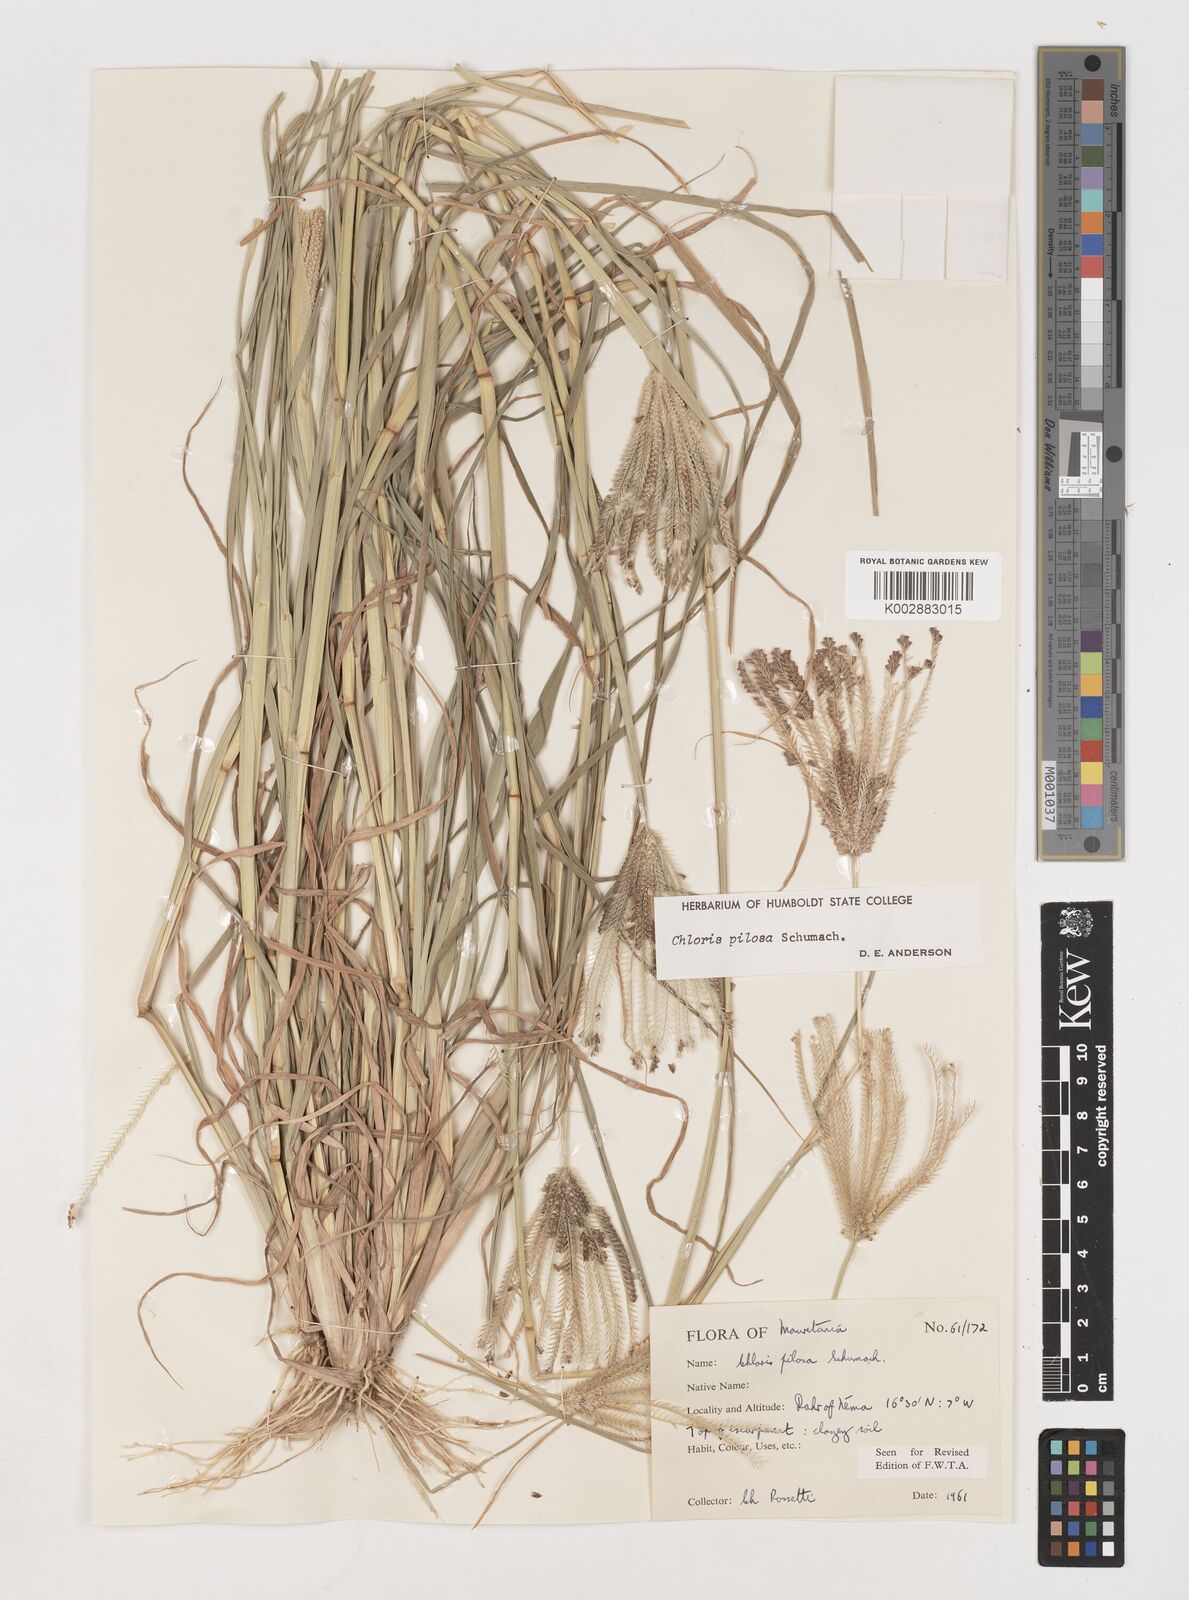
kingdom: Plantae
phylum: Tracheophyta
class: Liliopsida
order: Poales
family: Poaceae
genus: Chloris
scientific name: Chloris pilosa
